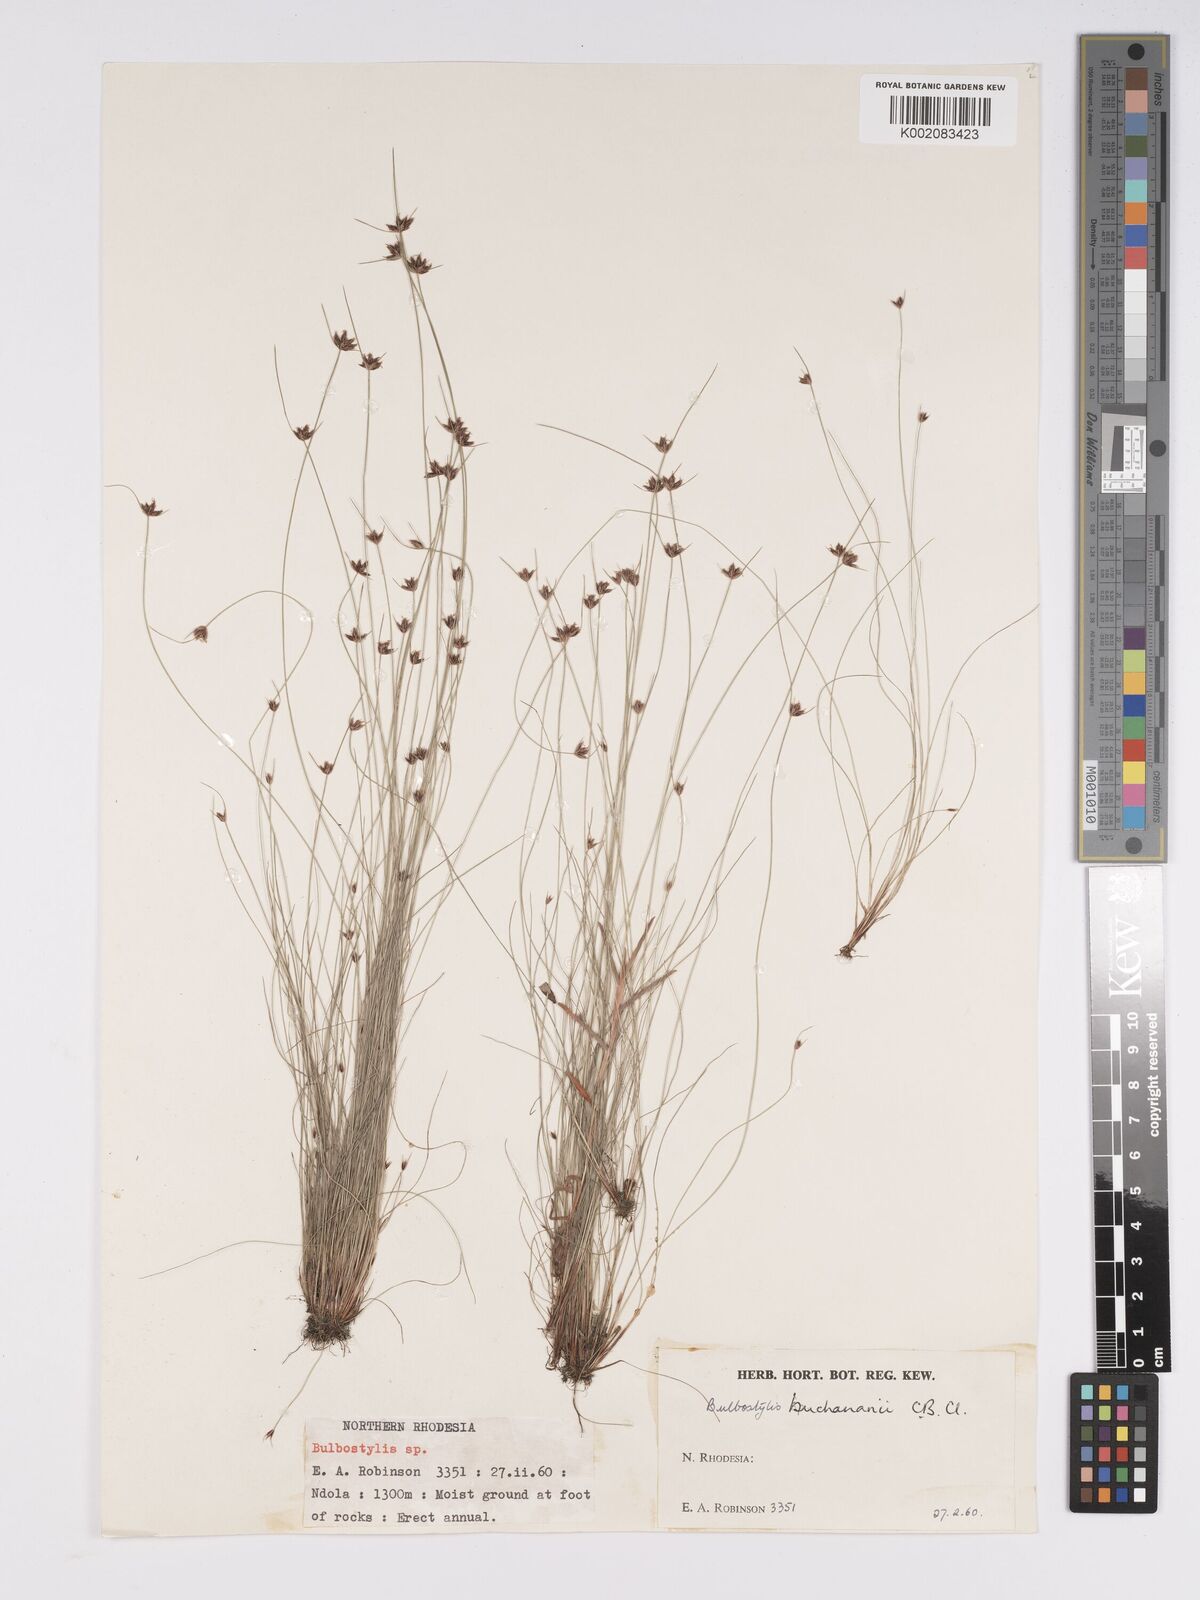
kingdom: Plantae
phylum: Tracheophyta
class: Liliopsida
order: Poales
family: Cyperaceae
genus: Bulbostylis
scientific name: Bulbostylis buchananii
